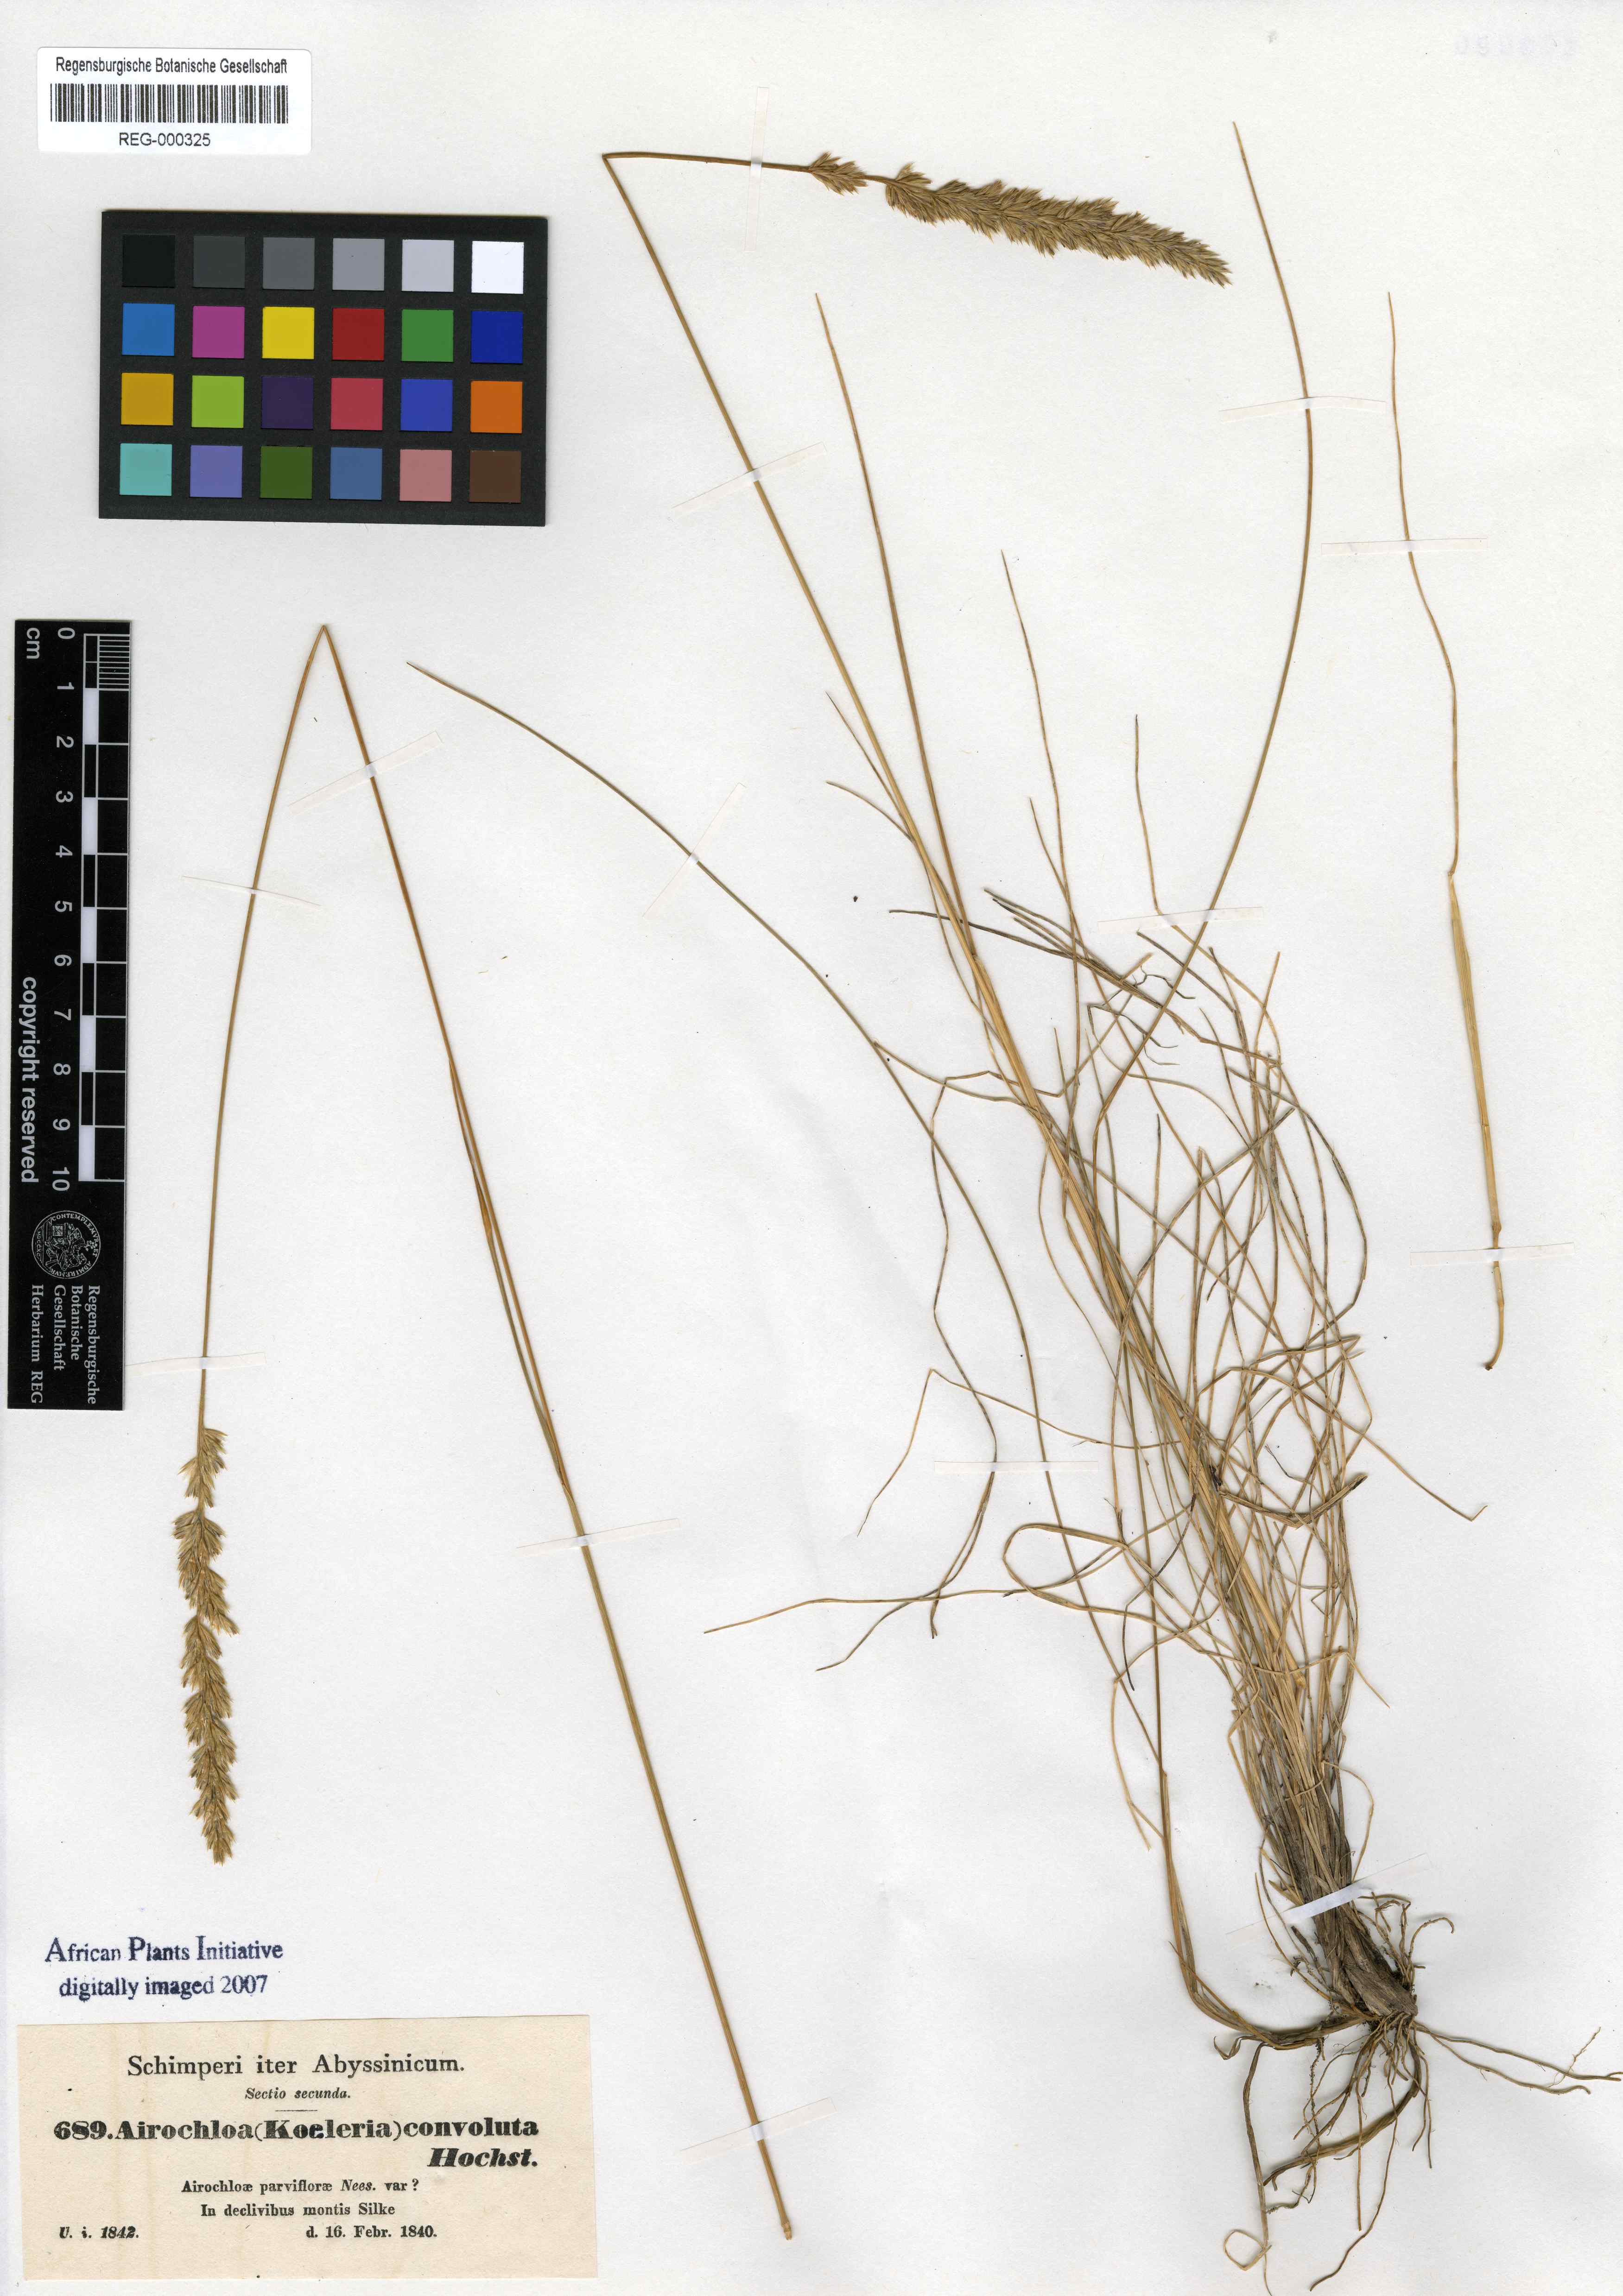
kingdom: Plantae
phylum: Tracheophyta
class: Liliopsida
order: Poales
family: Poaceae
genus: Koeleria
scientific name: Koeleria capensis
